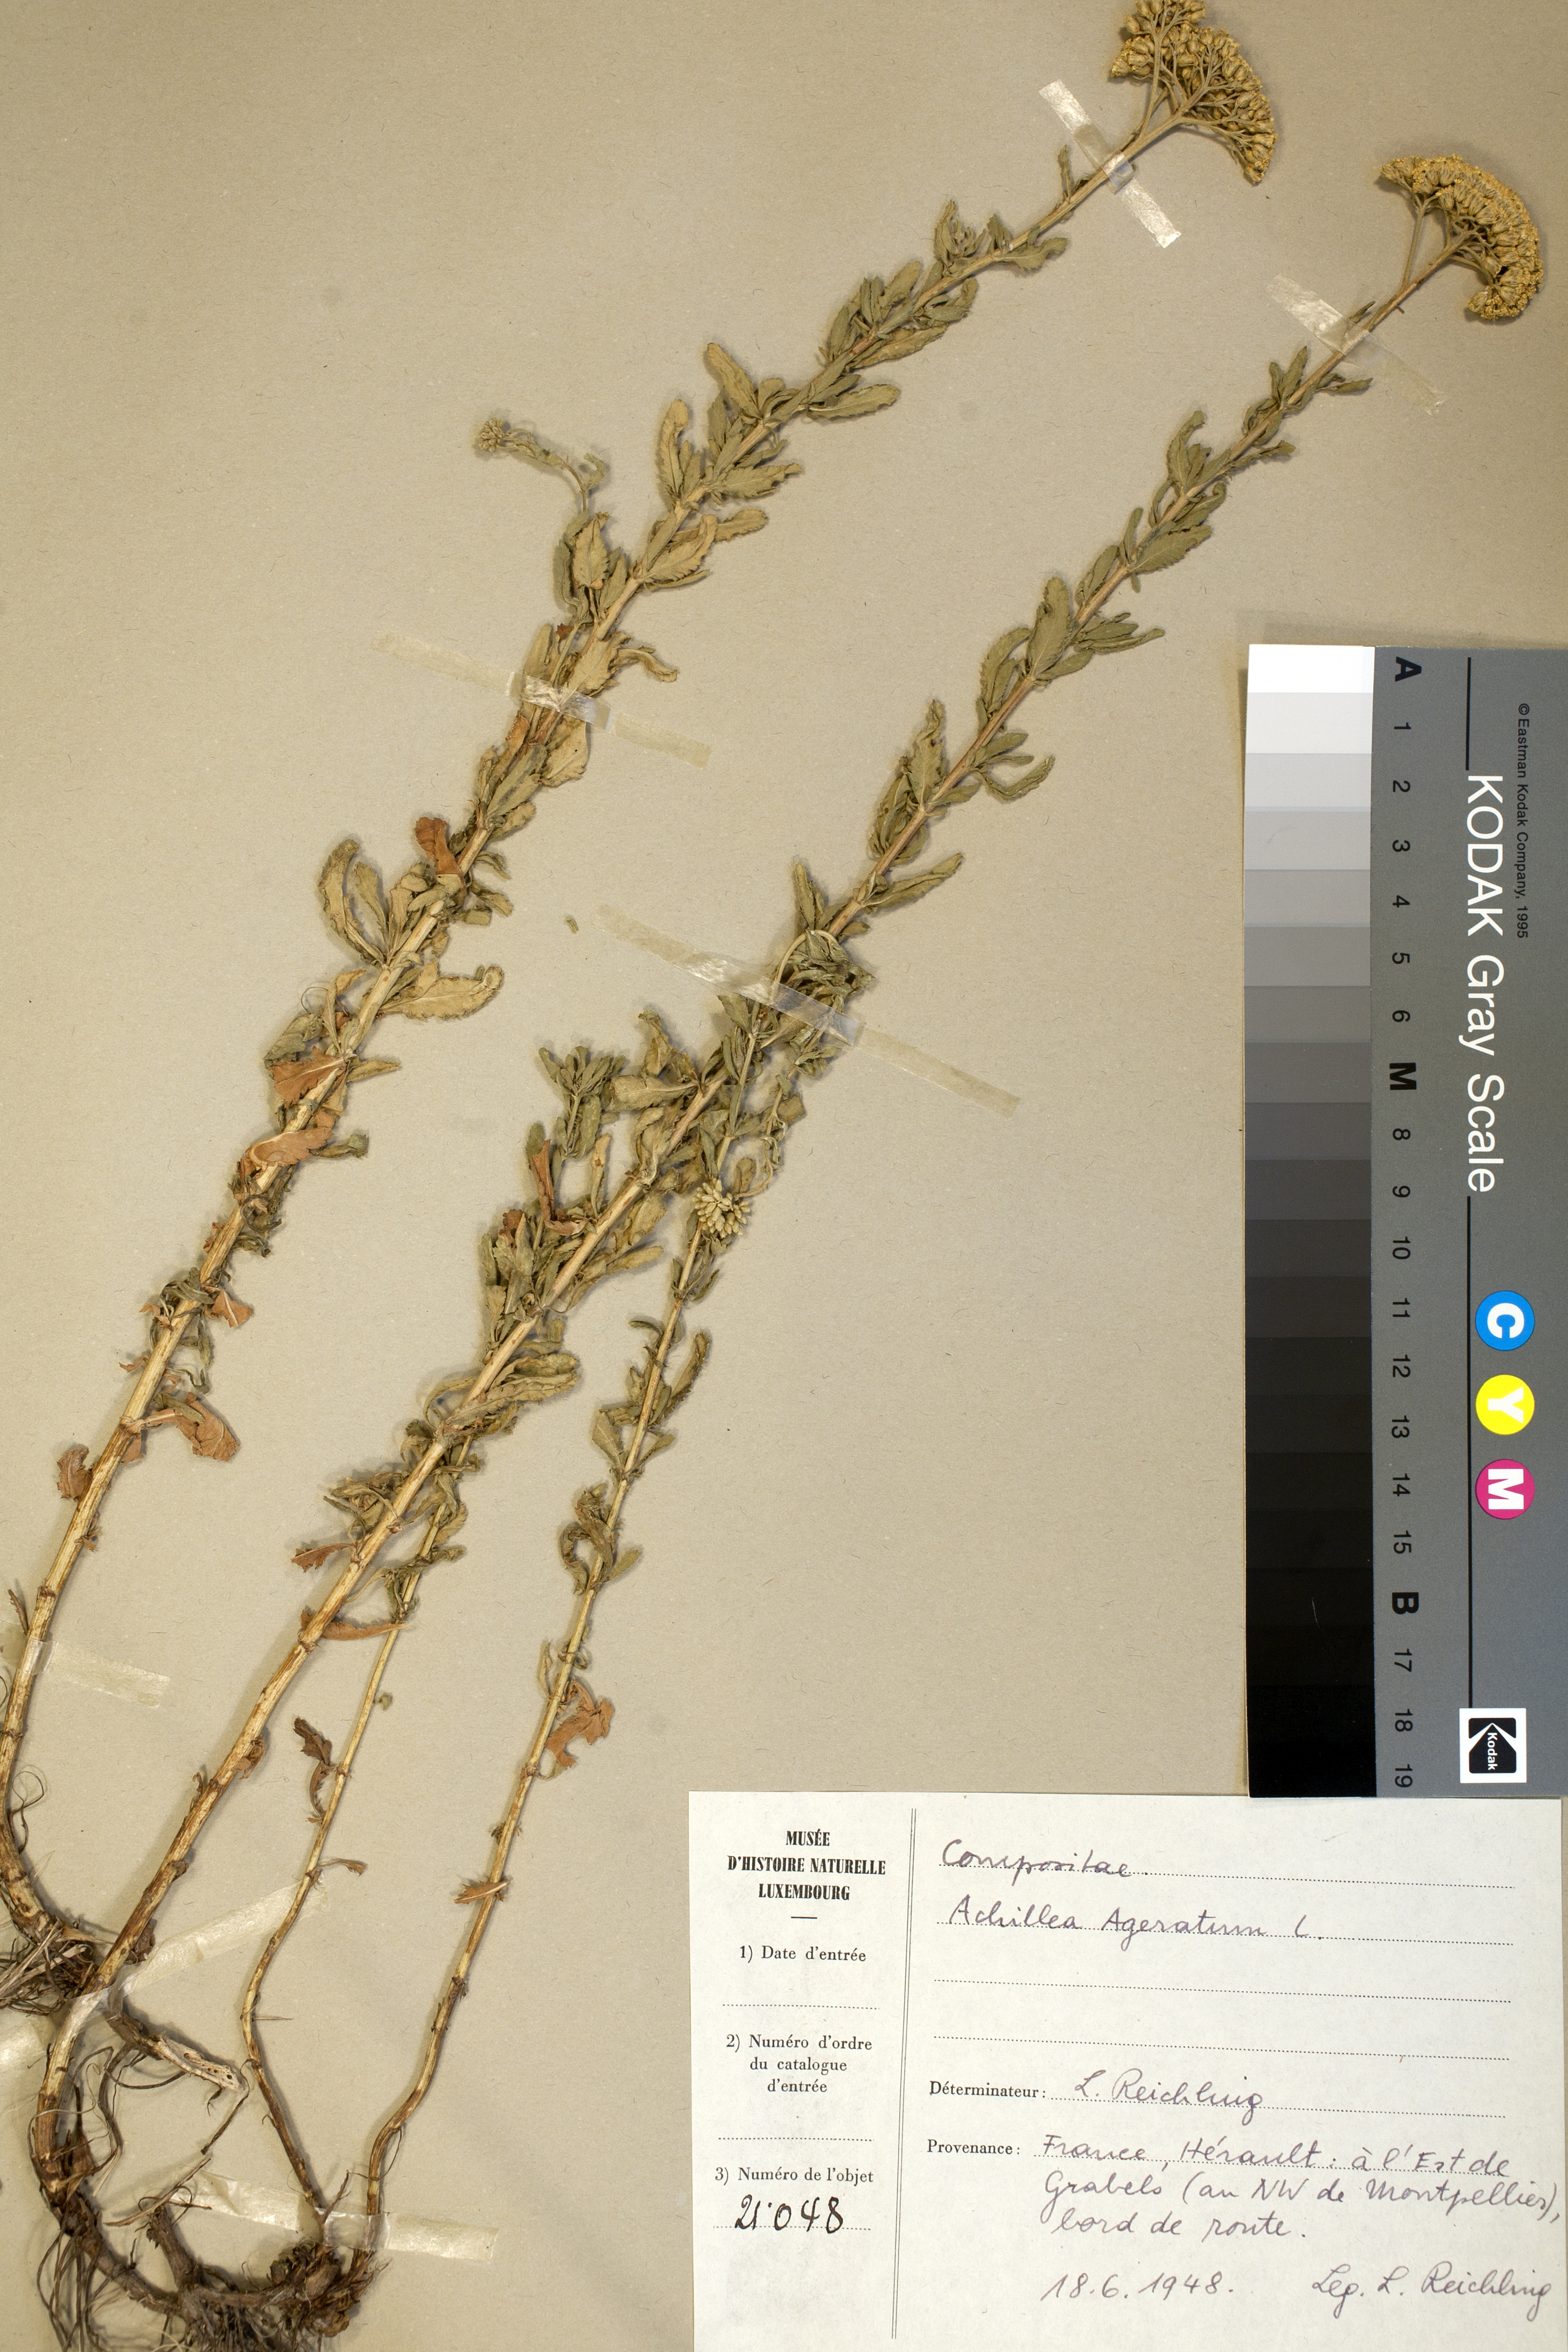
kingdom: Plantae
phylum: Tracheophyta
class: Magnoliopsida
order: Asterales
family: Asteraceae
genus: Achillea
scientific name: Achillea ageratum
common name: Sweet-nancy
